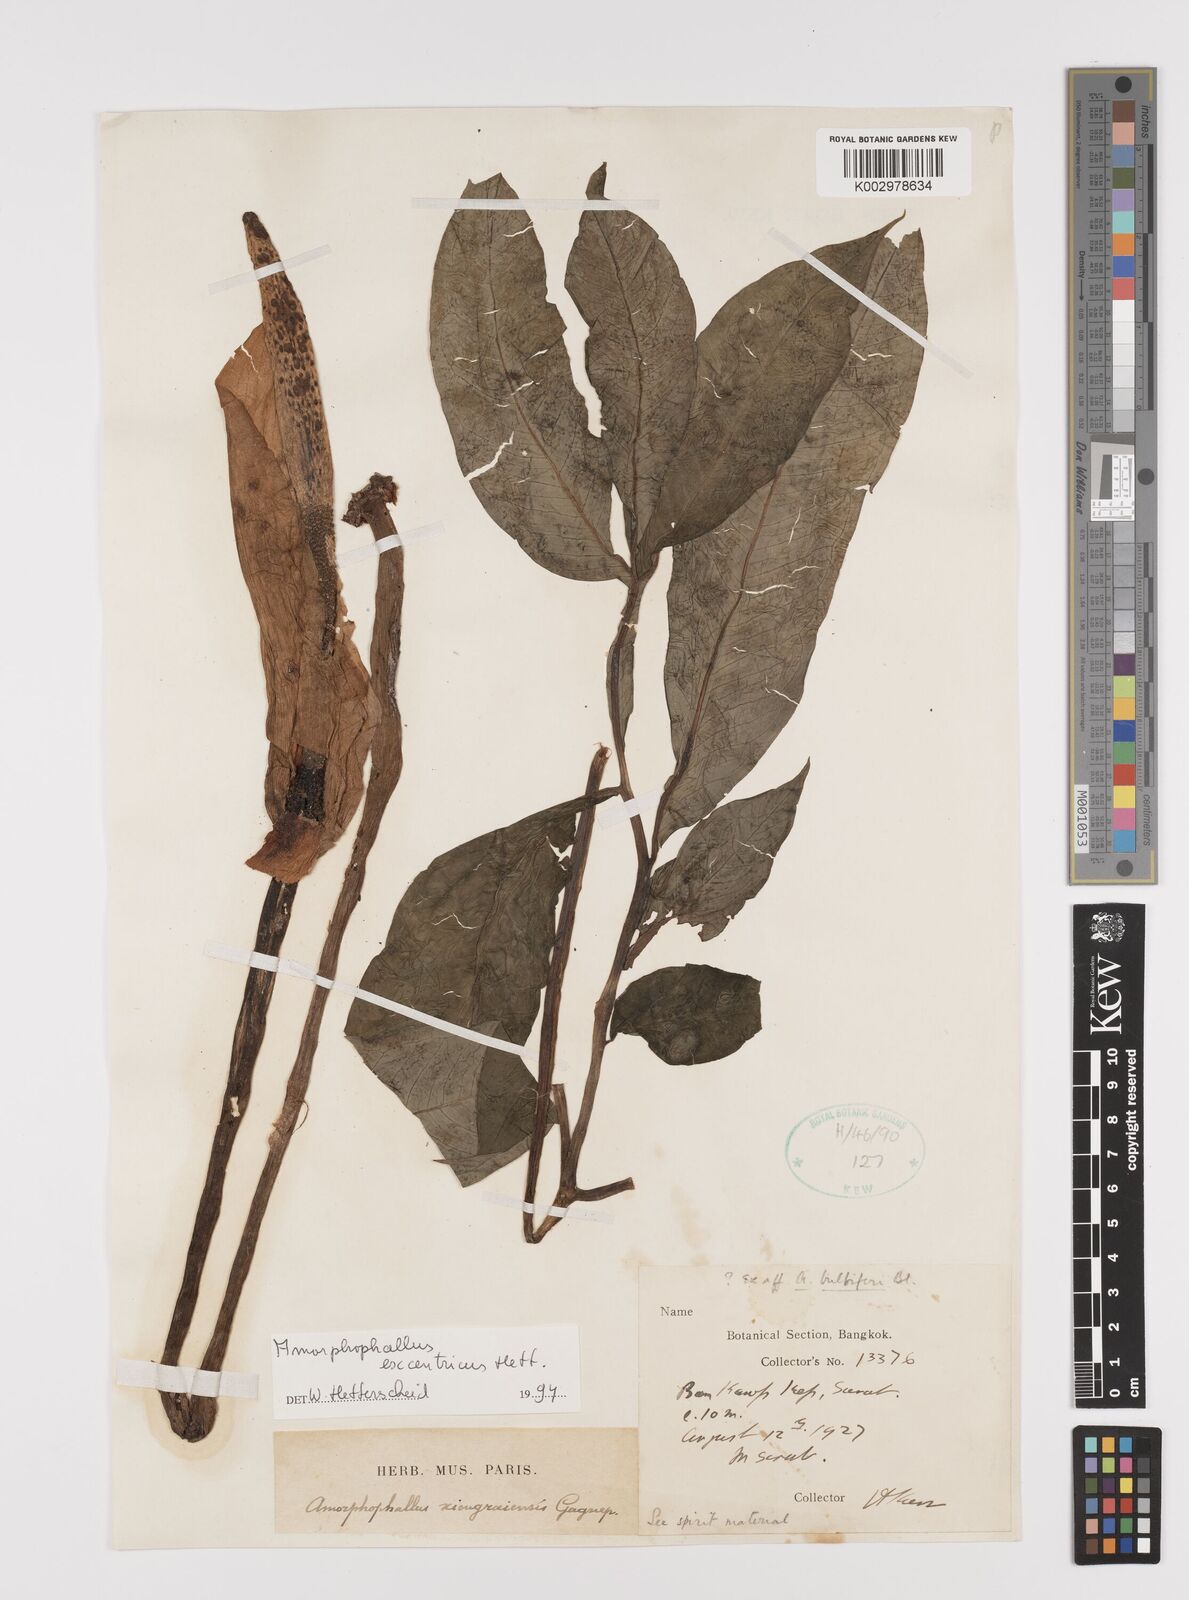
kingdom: Plantae
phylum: Tracheophyta
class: Liliopsida
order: Alismatales
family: Araceae
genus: Amorphophallus
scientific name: Amorphophallus excentricus
